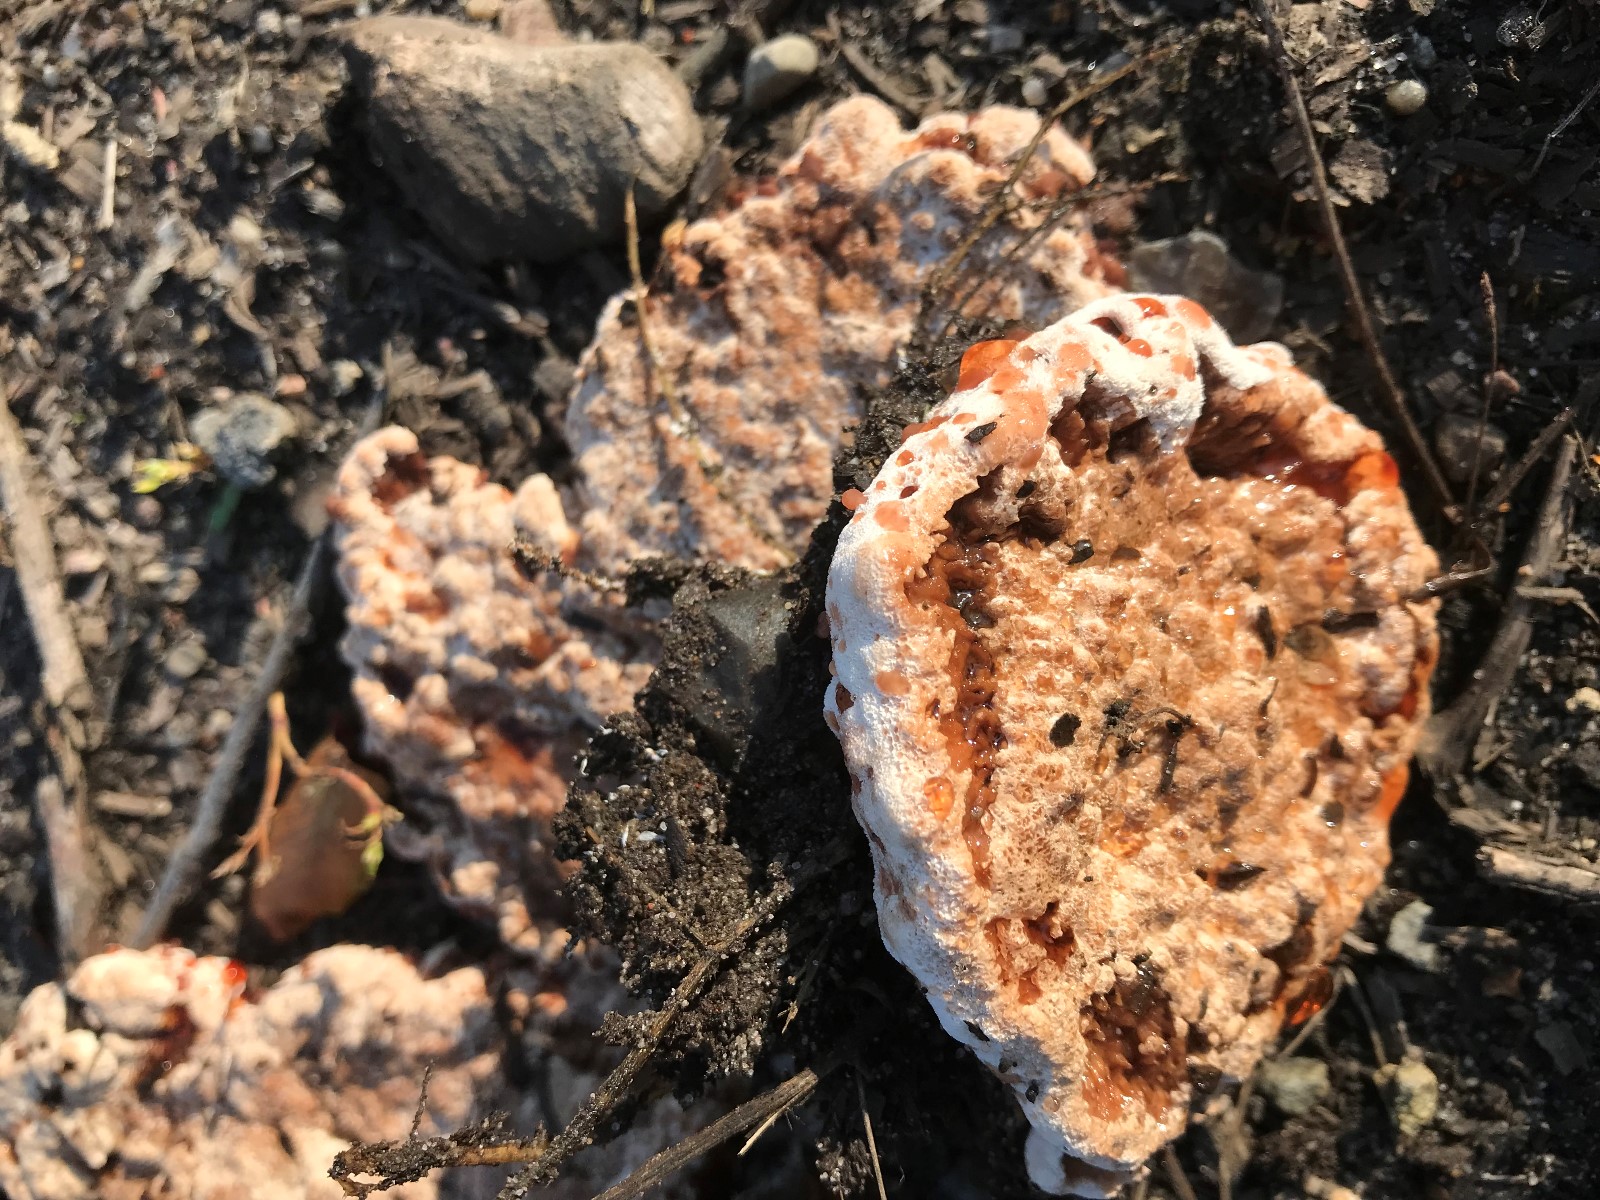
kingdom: Fungi
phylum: Basidiomycota
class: Agaricomycetes
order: Polyporales
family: Podoscyphaceae
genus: Abortiporus
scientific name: Abortiporus biennis
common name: rødmende pjalteporesvamp
